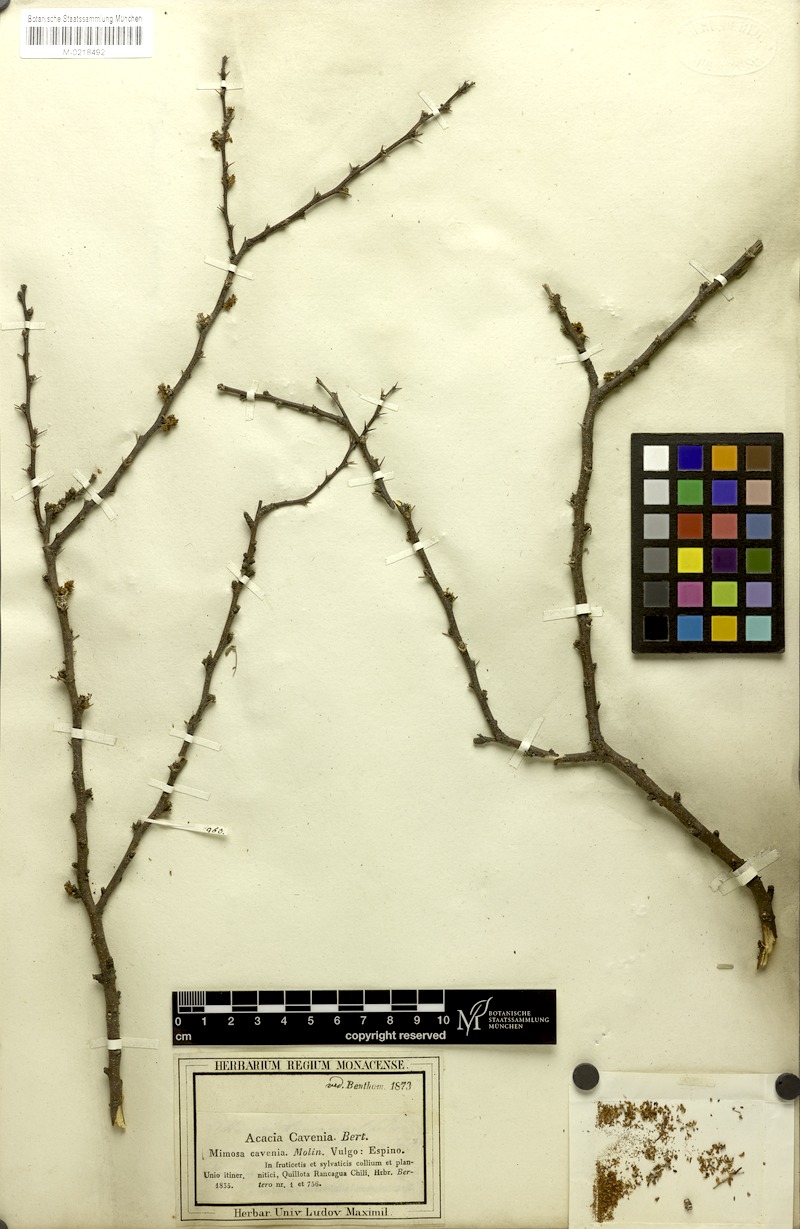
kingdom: Plantae
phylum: Tracheophyta
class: Magnoliopsida
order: Fabales
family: Fabaceae
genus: Vachellia
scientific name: Vachellia caven
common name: Roman cassie
